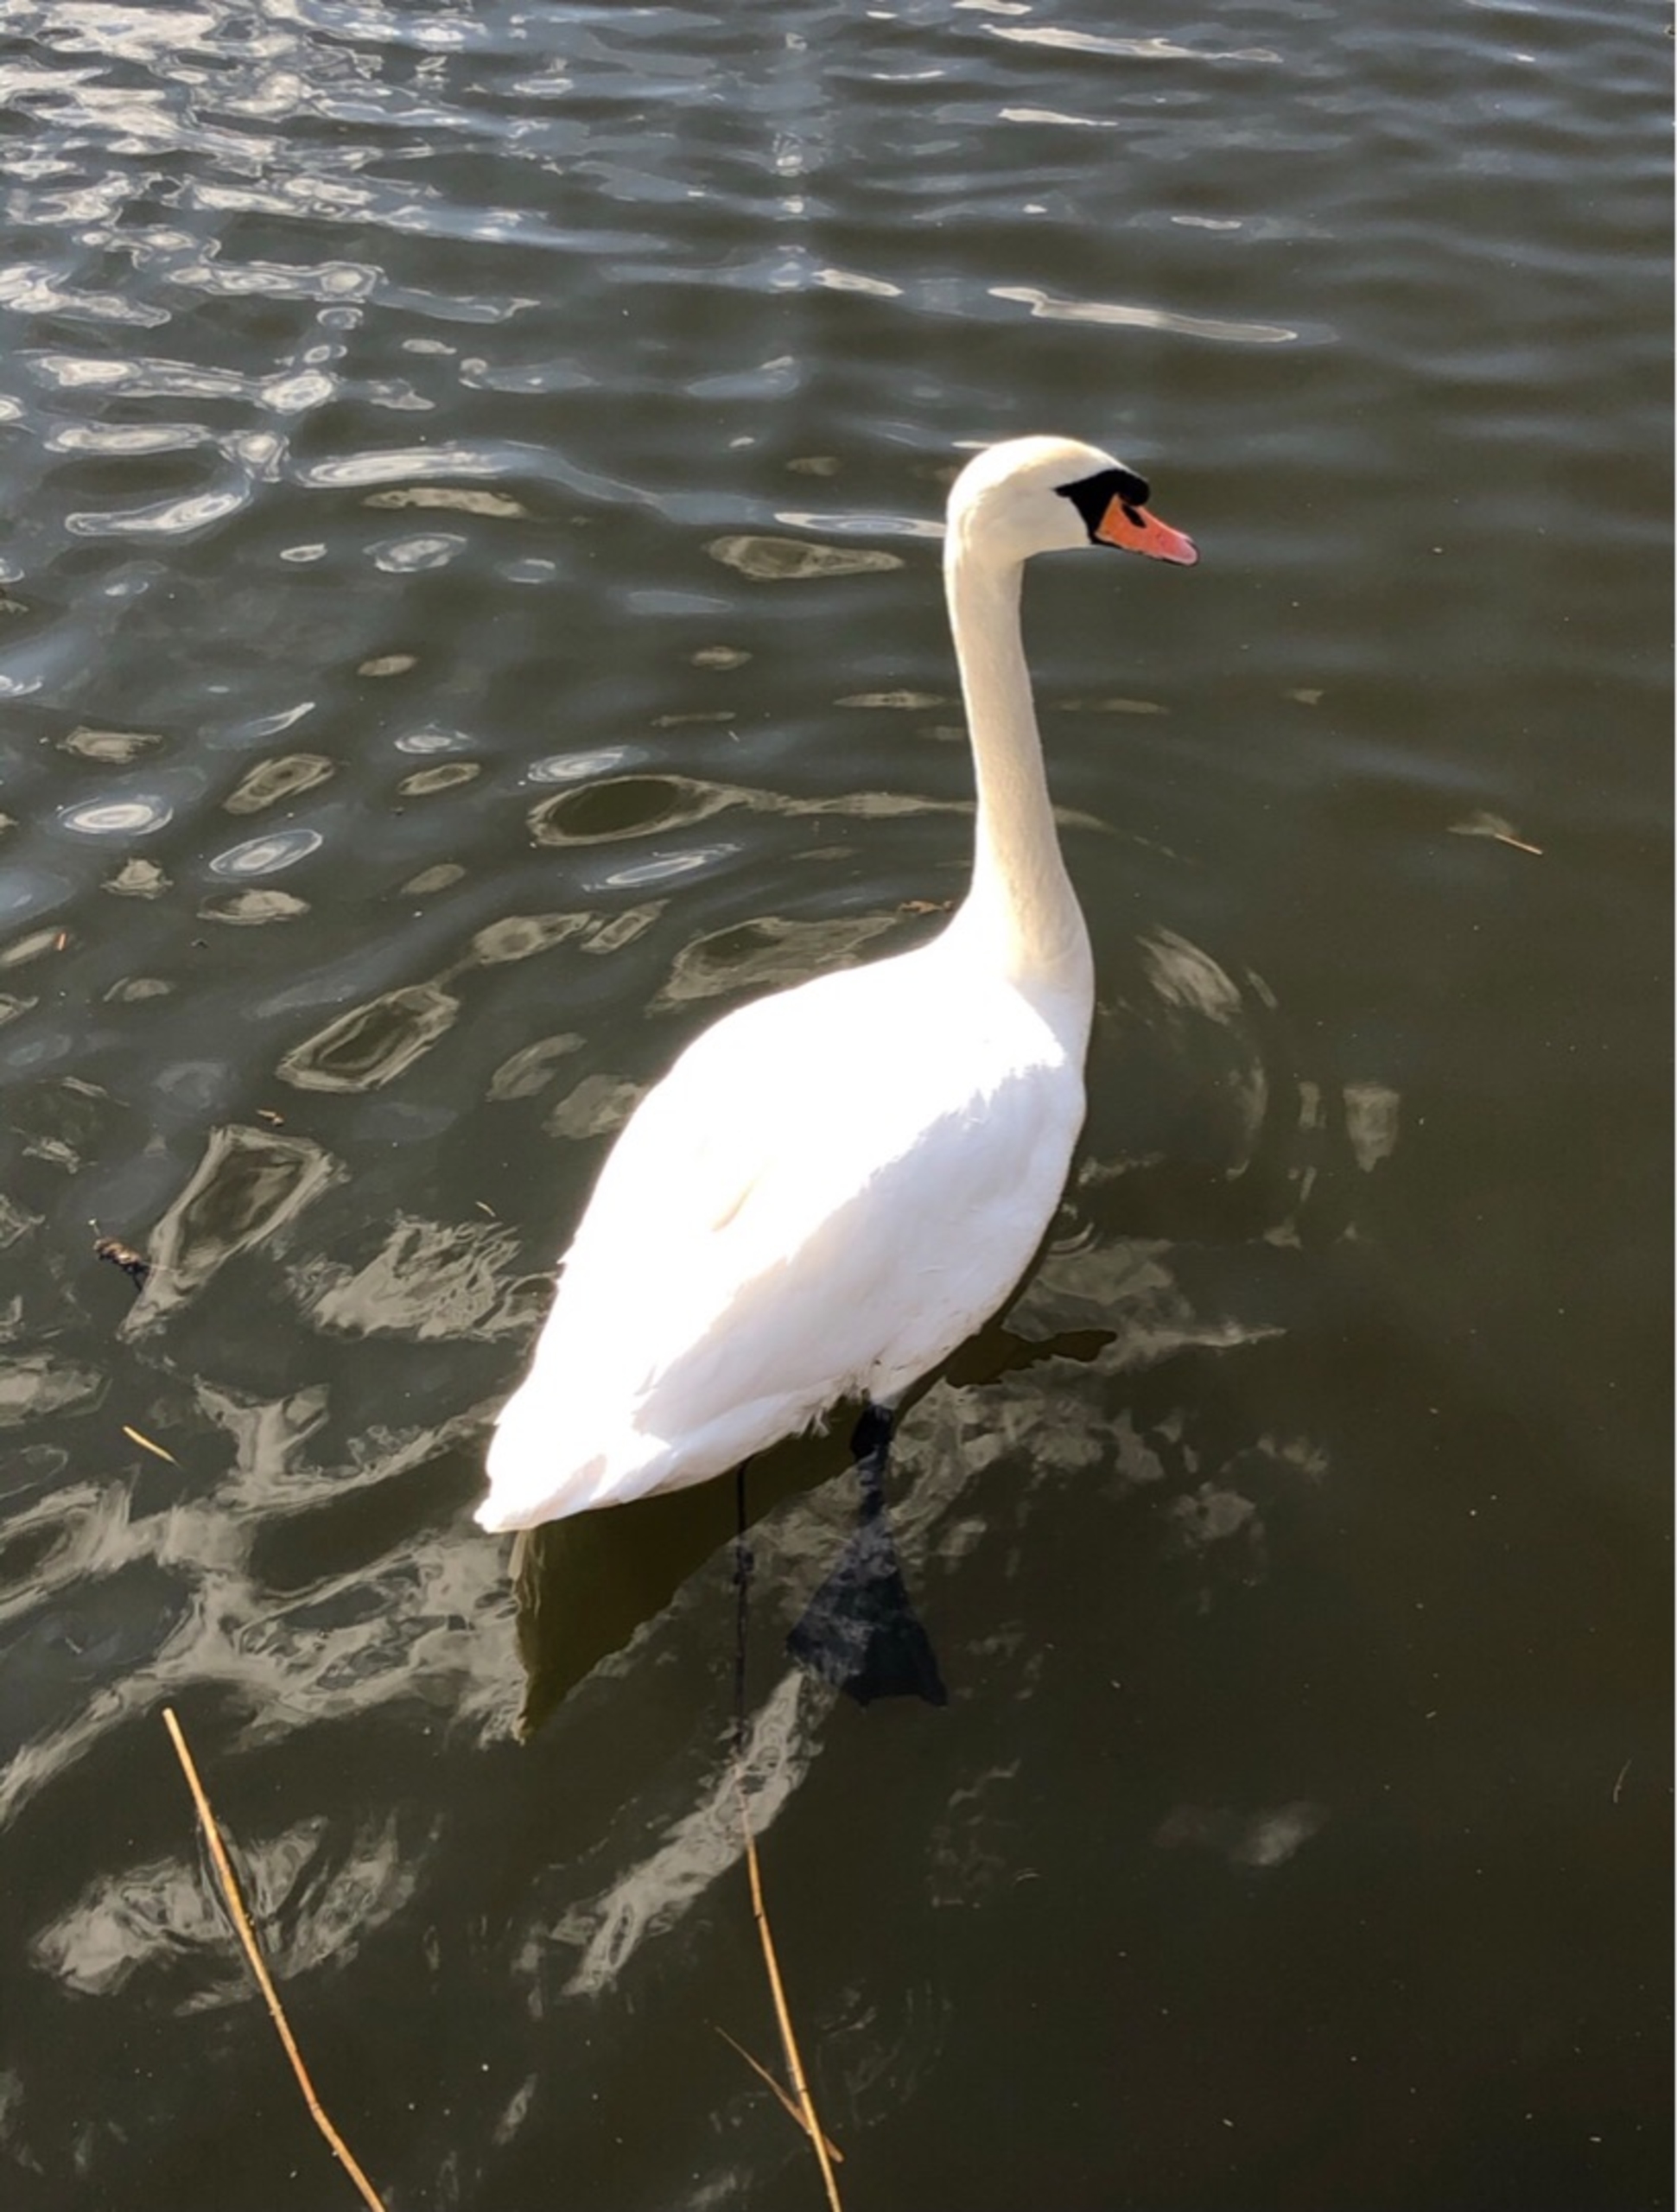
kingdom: Animalia
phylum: Chordata
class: Aves
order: Anseriformes
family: Anatidae
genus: Cygnus
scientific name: Cygnus olor
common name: Knopsvane
